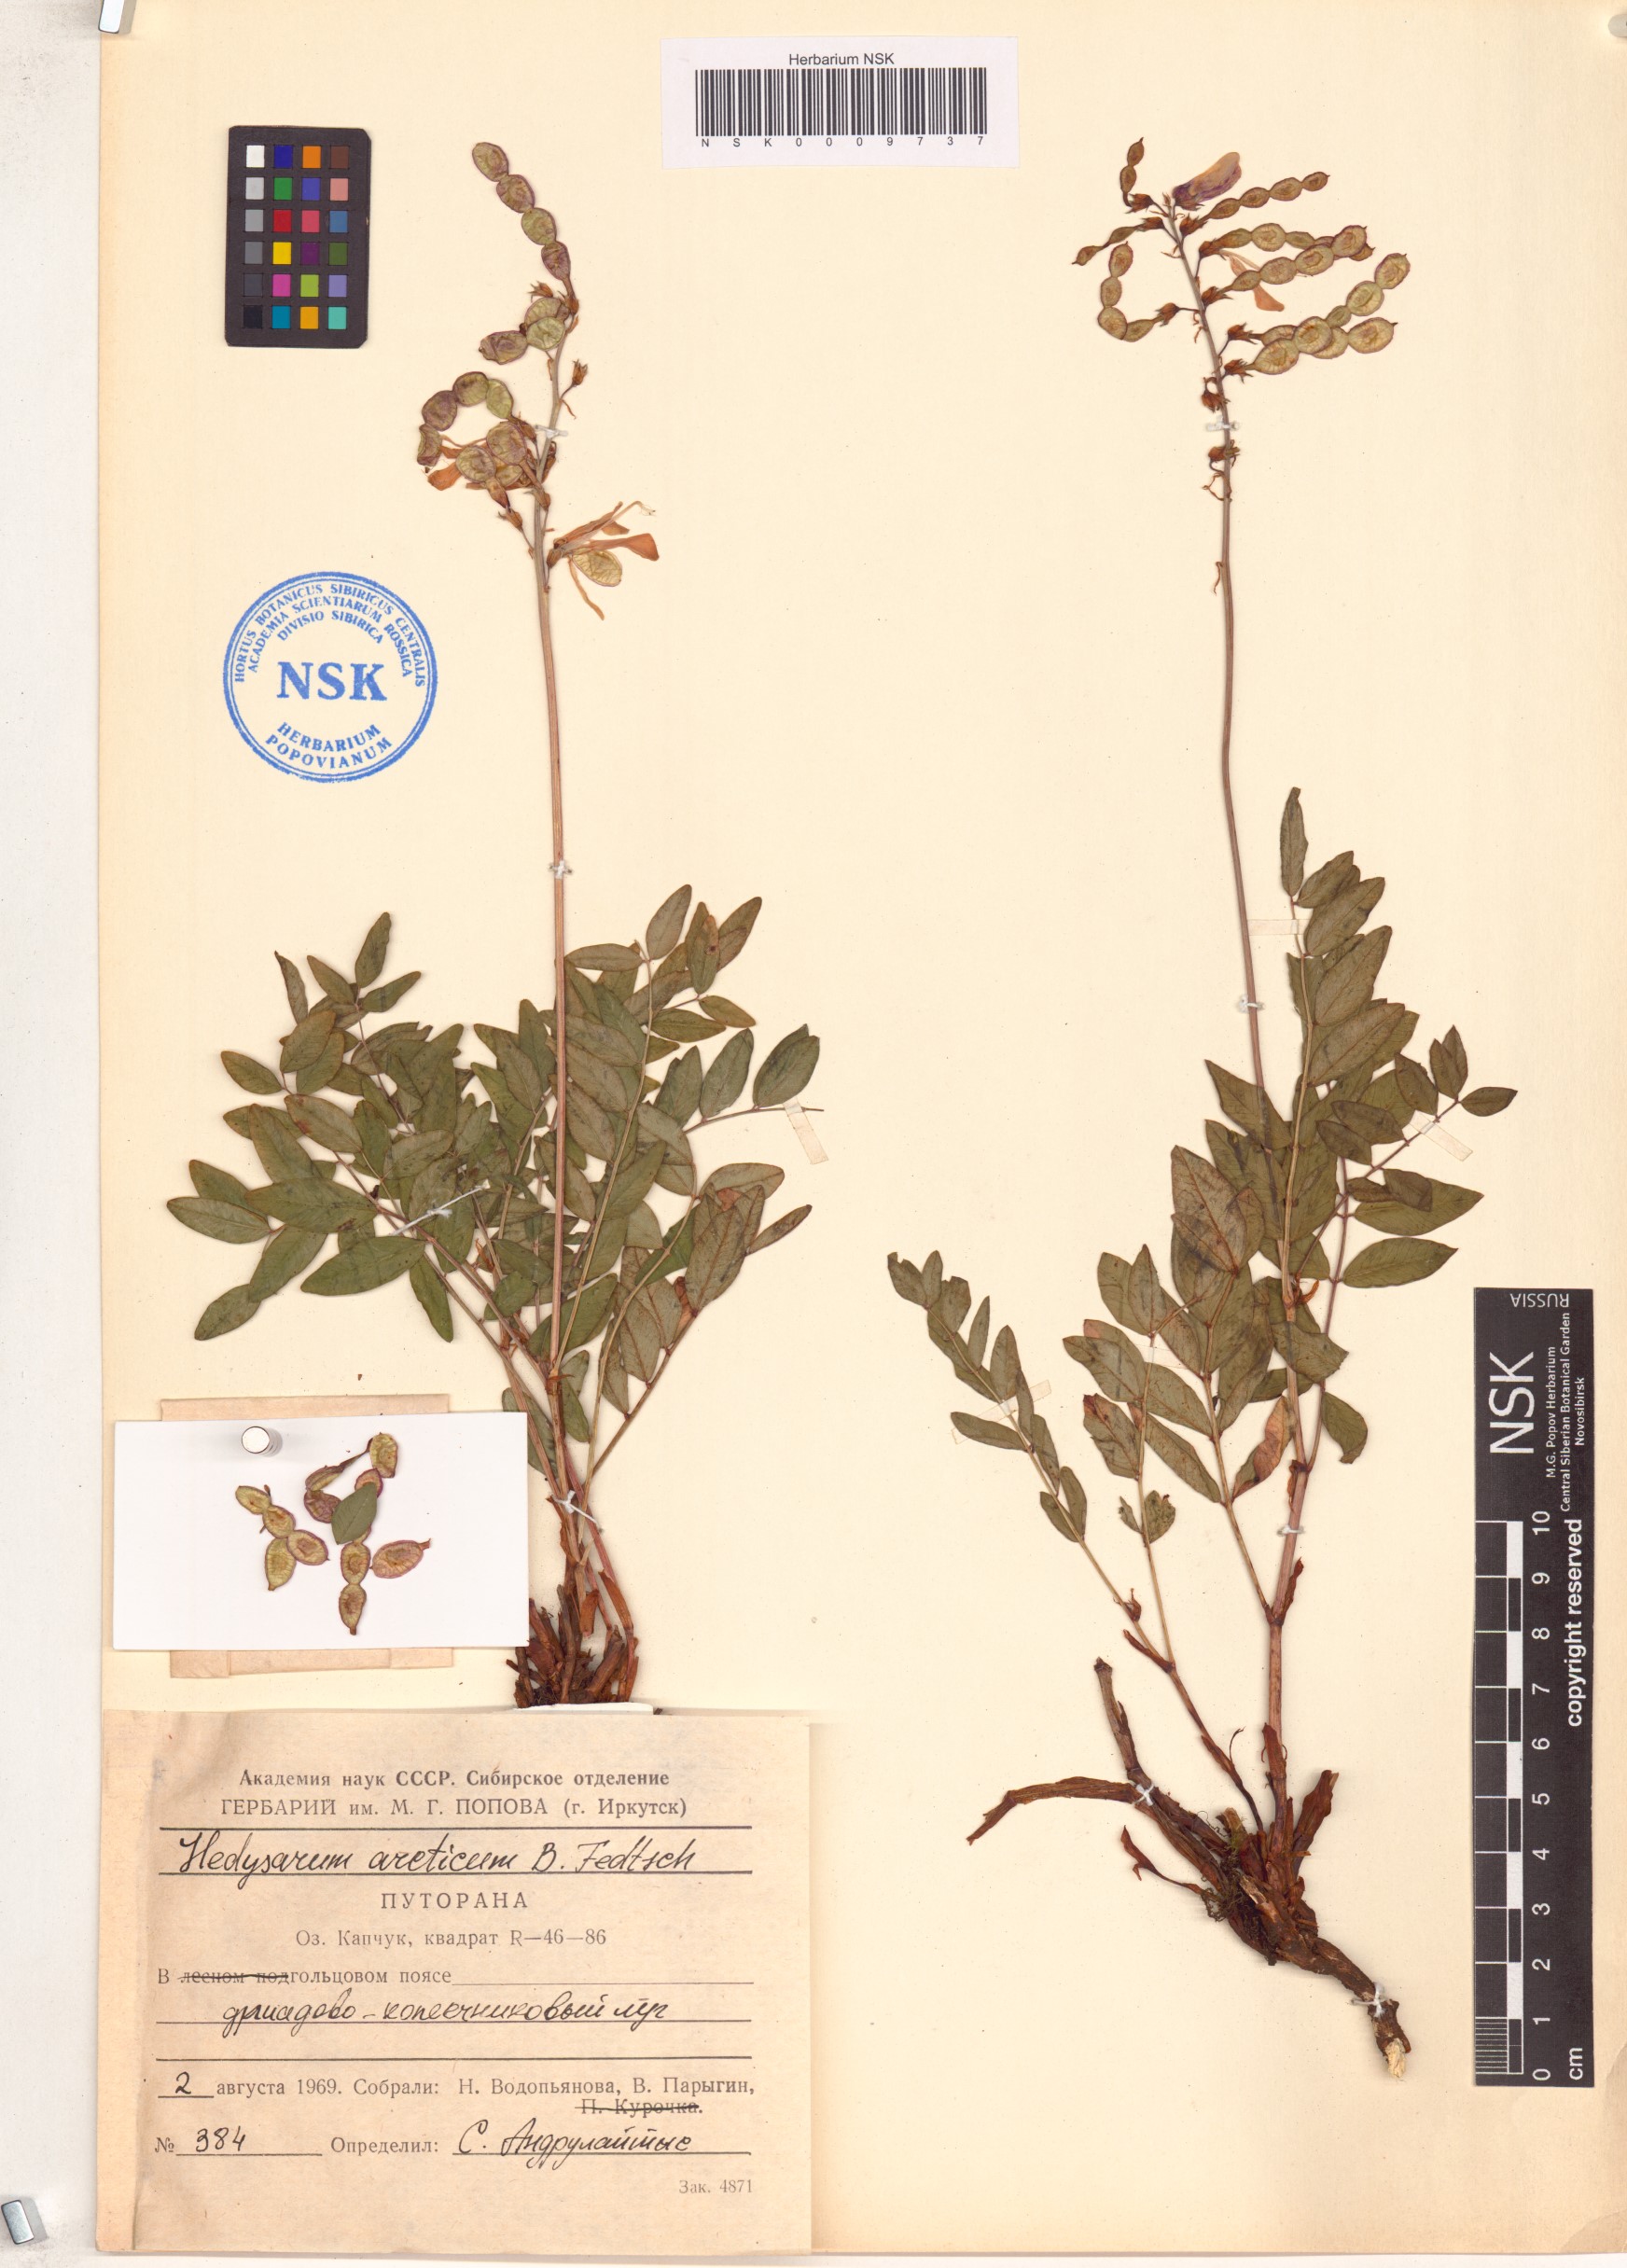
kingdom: Plantae
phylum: Tracheophyta
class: Magnoliopsida
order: Fabales
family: Fabaceae
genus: Hedysarum
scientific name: Hedysarum hedysaroides
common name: Alpine french-honeysuckle
